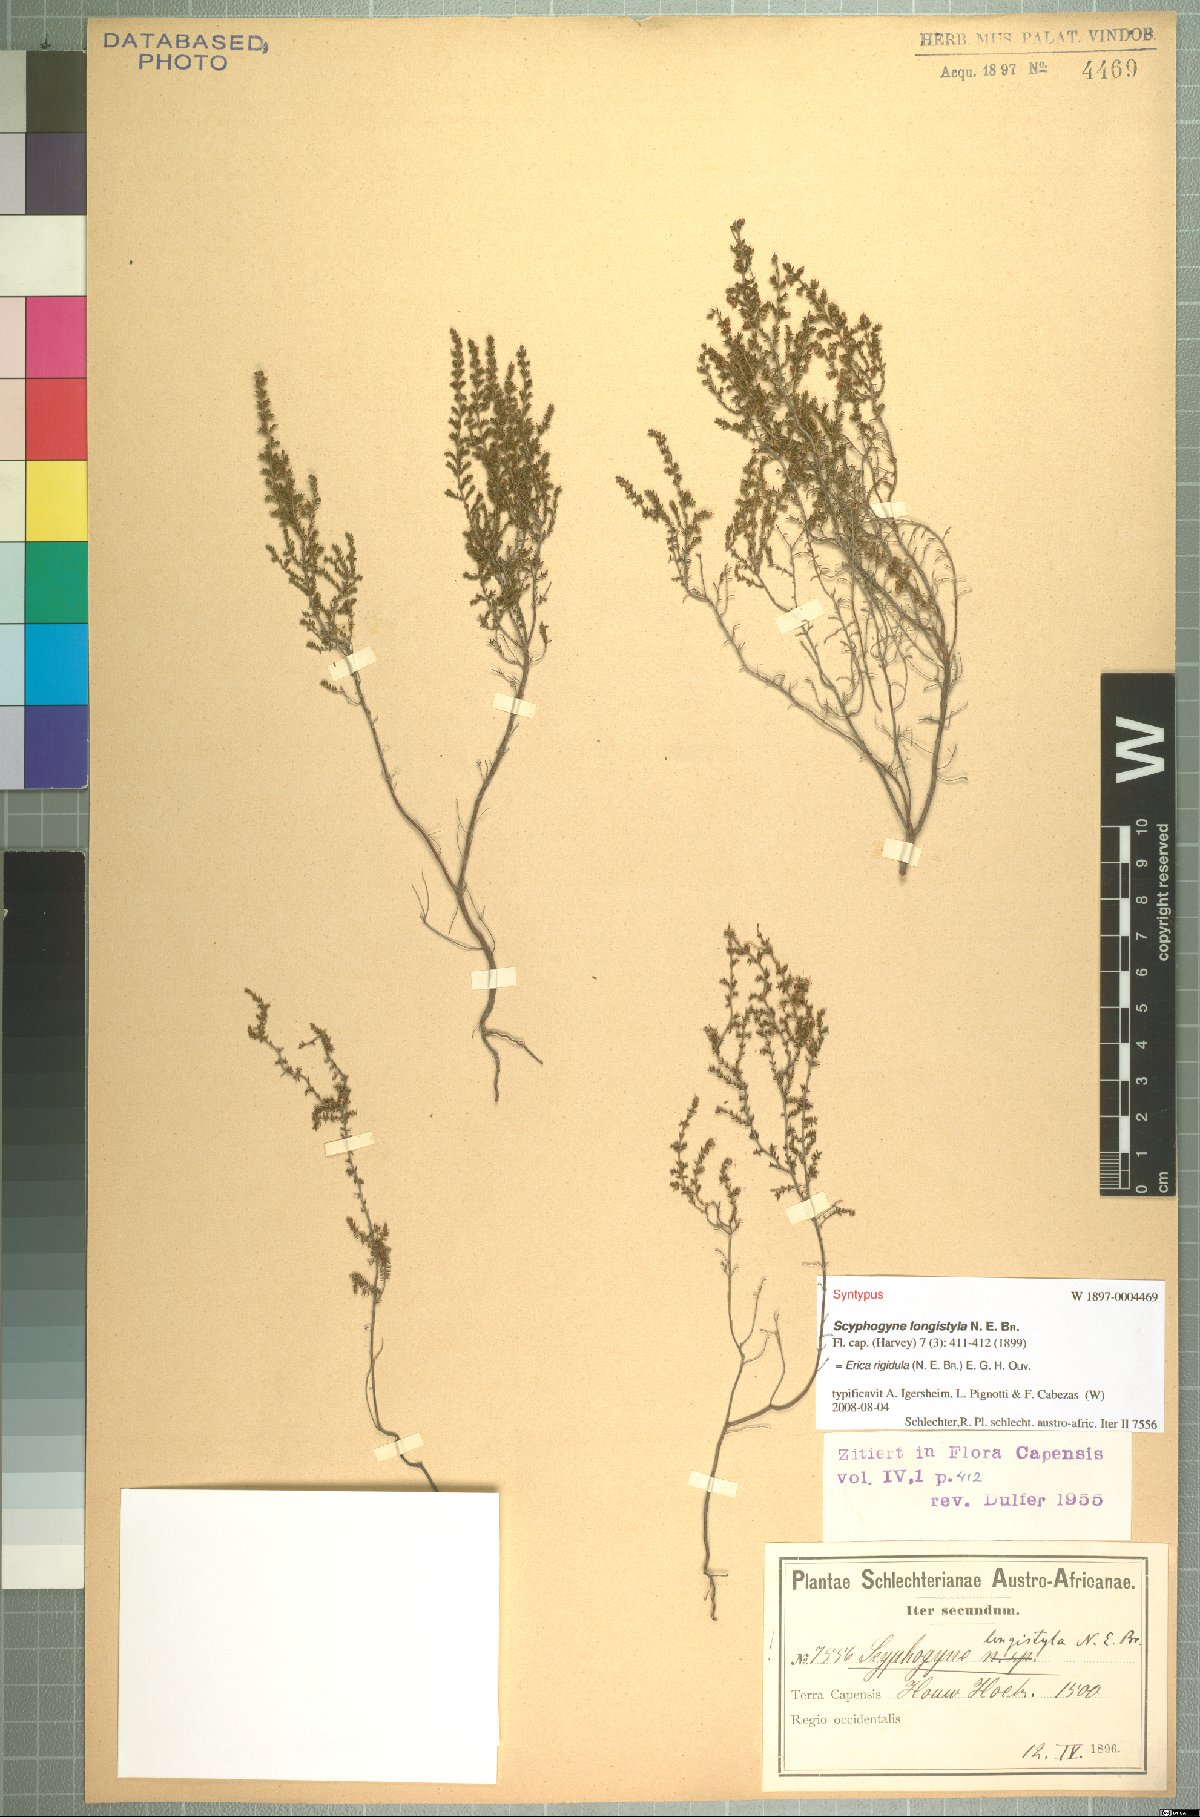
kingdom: Plantae
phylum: Tracheophyta
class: Magnoliopsida
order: Ericales
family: Ericaceae
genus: Erica
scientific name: Erica rigidula
